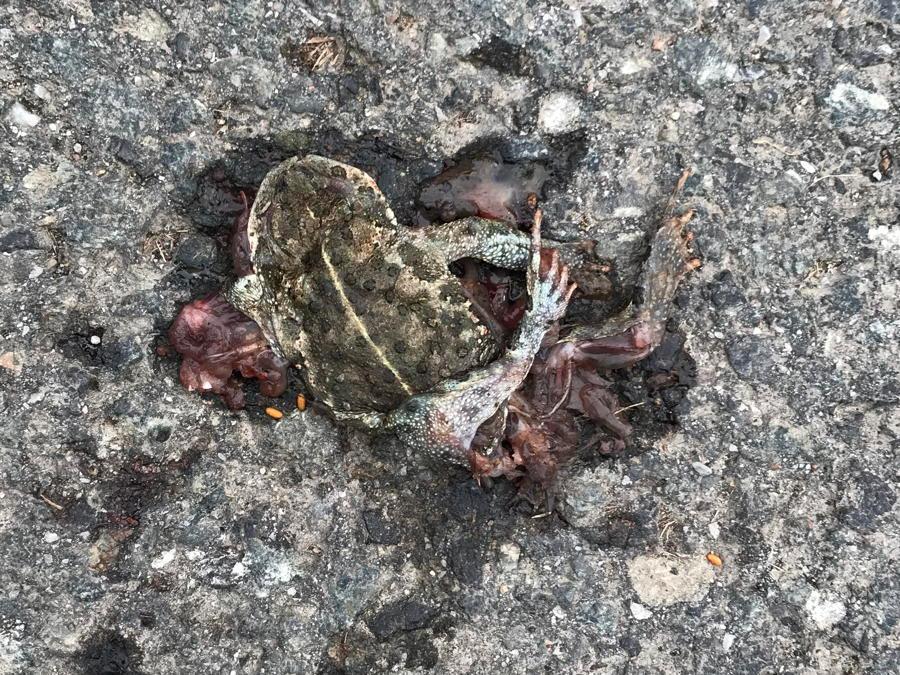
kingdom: Animalia
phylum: Chordata
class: Amphibia
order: Anura
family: Bufonidae
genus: Epidalea
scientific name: Epidalea calamita
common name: Natterjack toad
